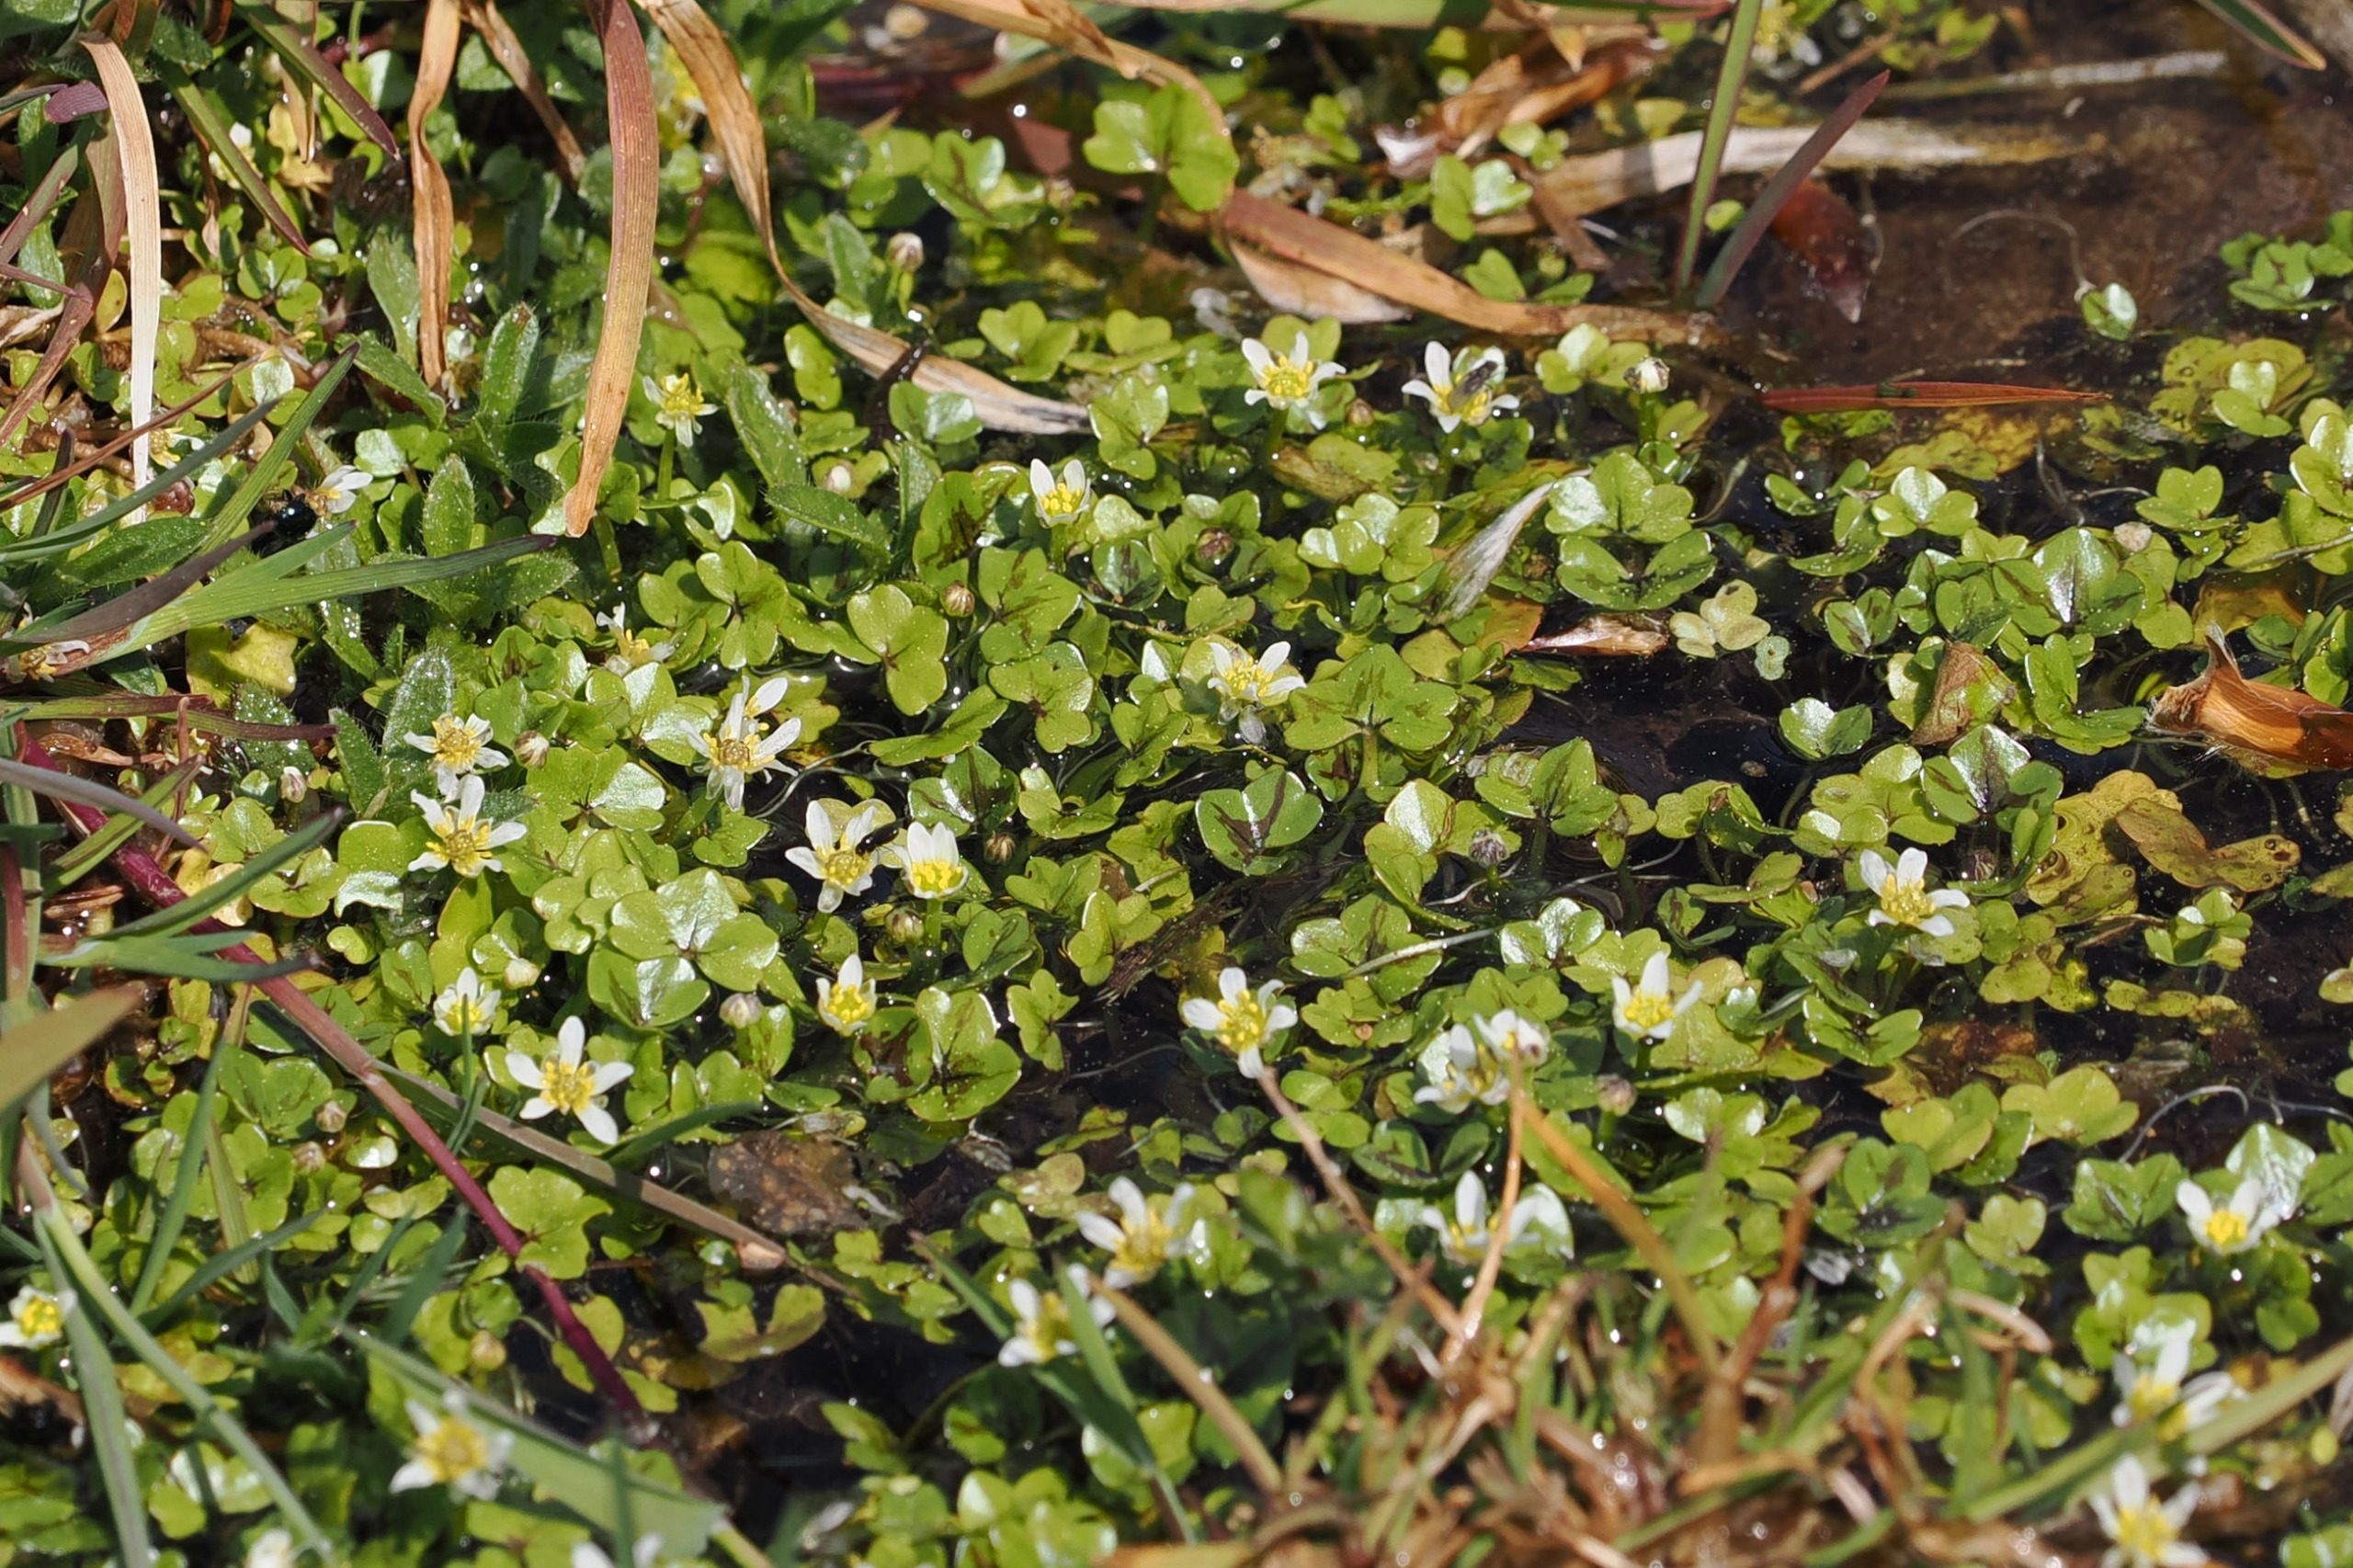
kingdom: Plantae
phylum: Tracheophyta
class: Magnoliopsida
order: Ranunculales
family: Ranunculaceae
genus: Ranunculus
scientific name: Ranunculus hederaceus
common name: Vedbend-vandranunkel
